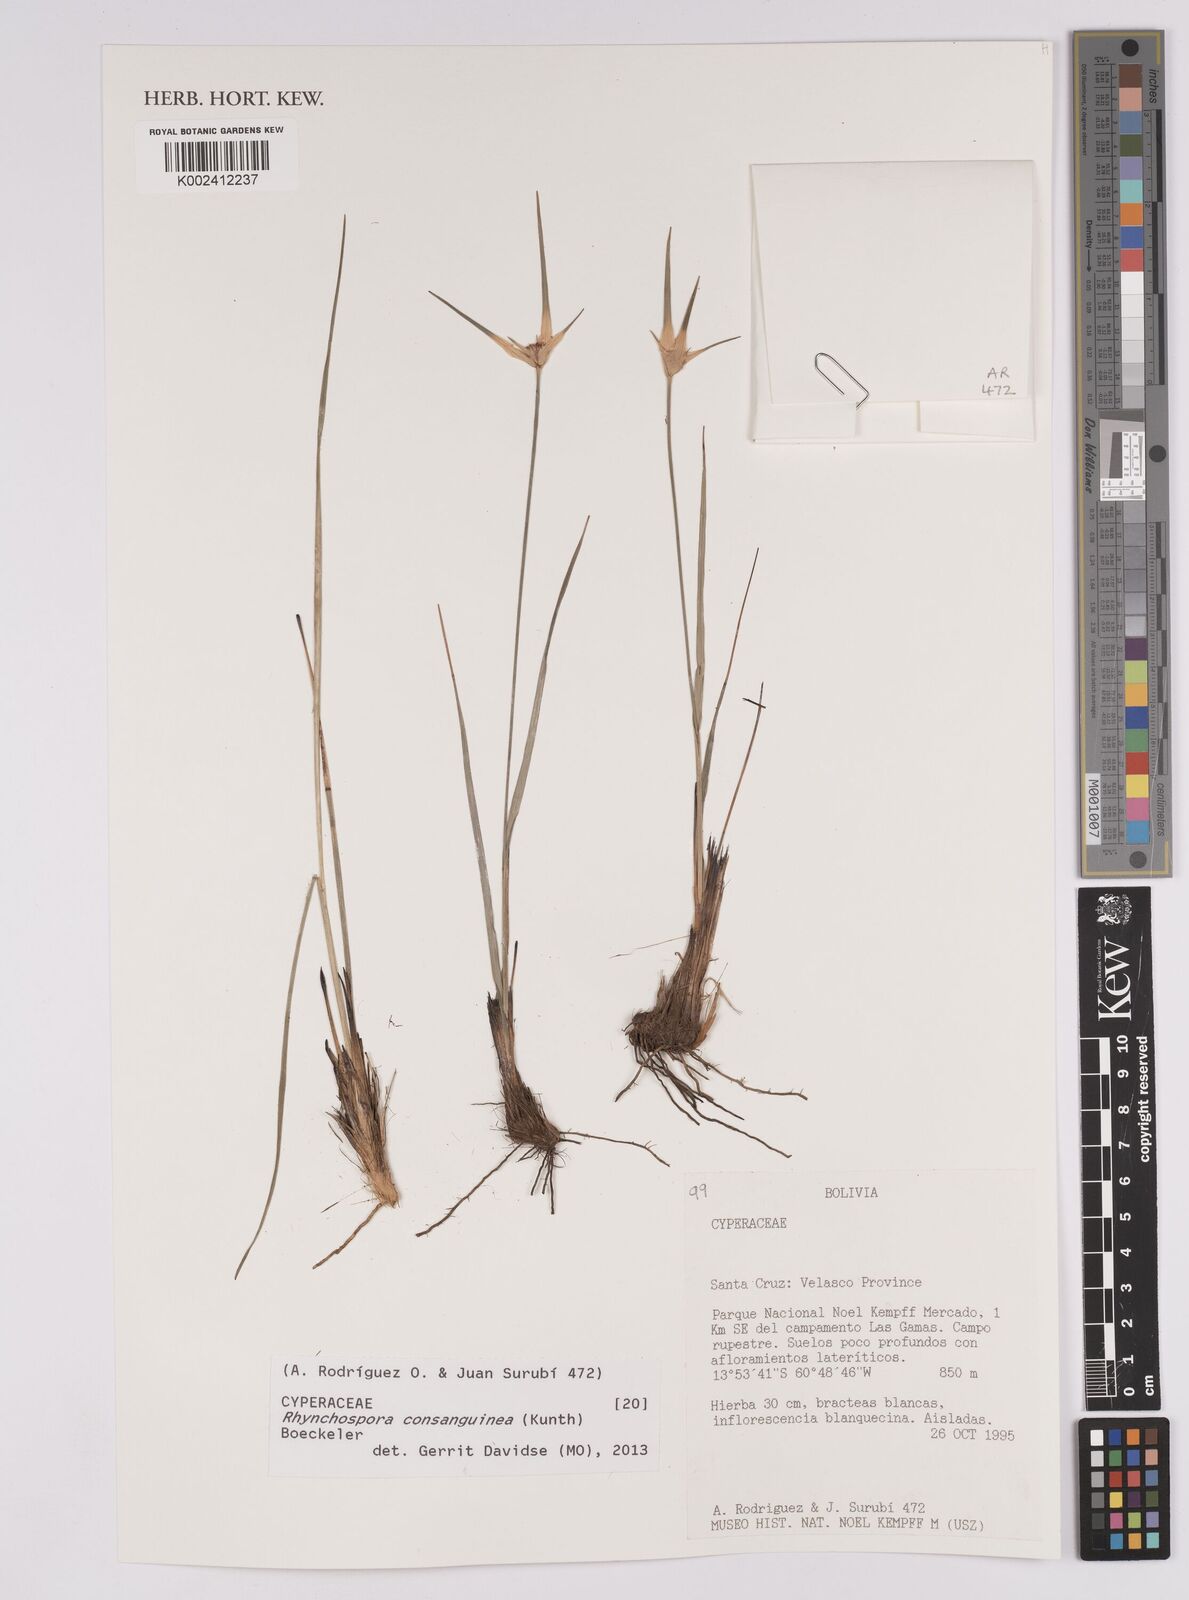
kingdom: Plantae
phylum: Tracheophyta
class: Liliopsida
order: Poales
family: Cyperaceae
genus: Rhynchospora
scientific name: Rhynchospora consanguinea
